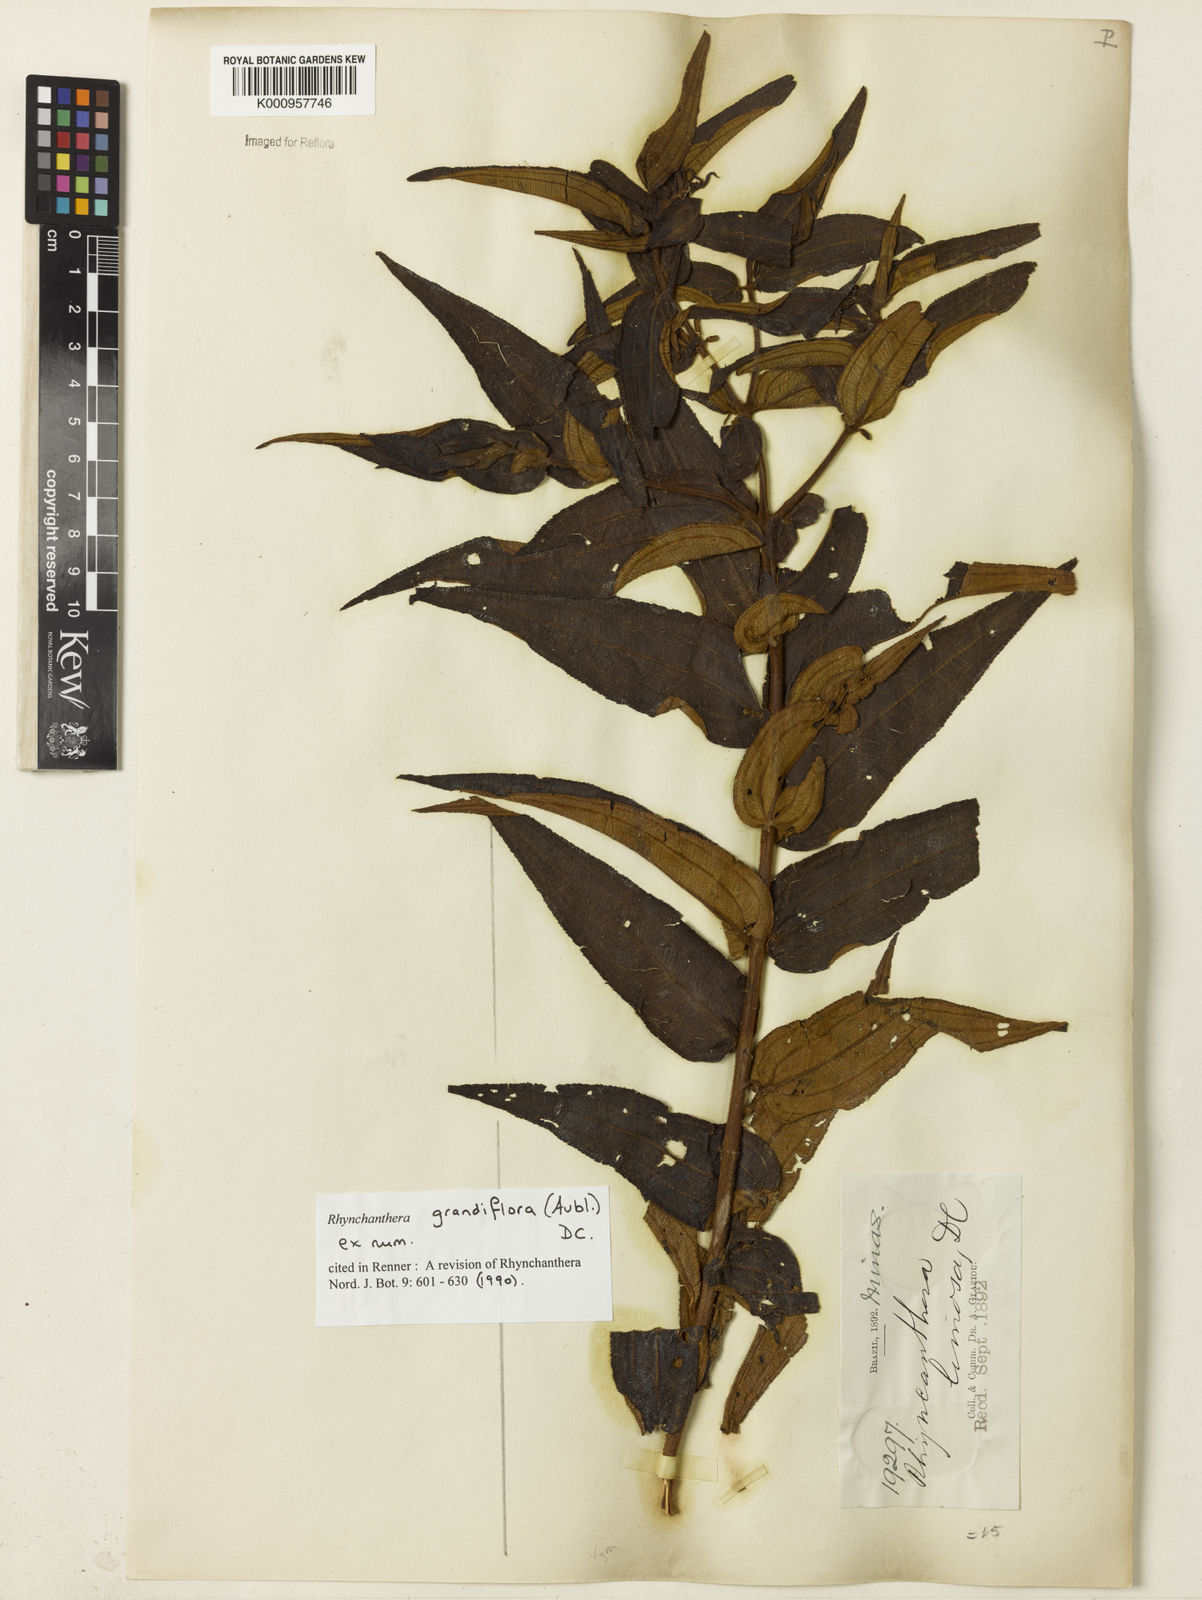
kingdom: Plantae
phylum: Tracheophyta
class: Magnoliopsida
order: Myrtales
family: Melastomataceae
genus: Rhynchanthera
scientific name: Rhynchanthera grandiflora
